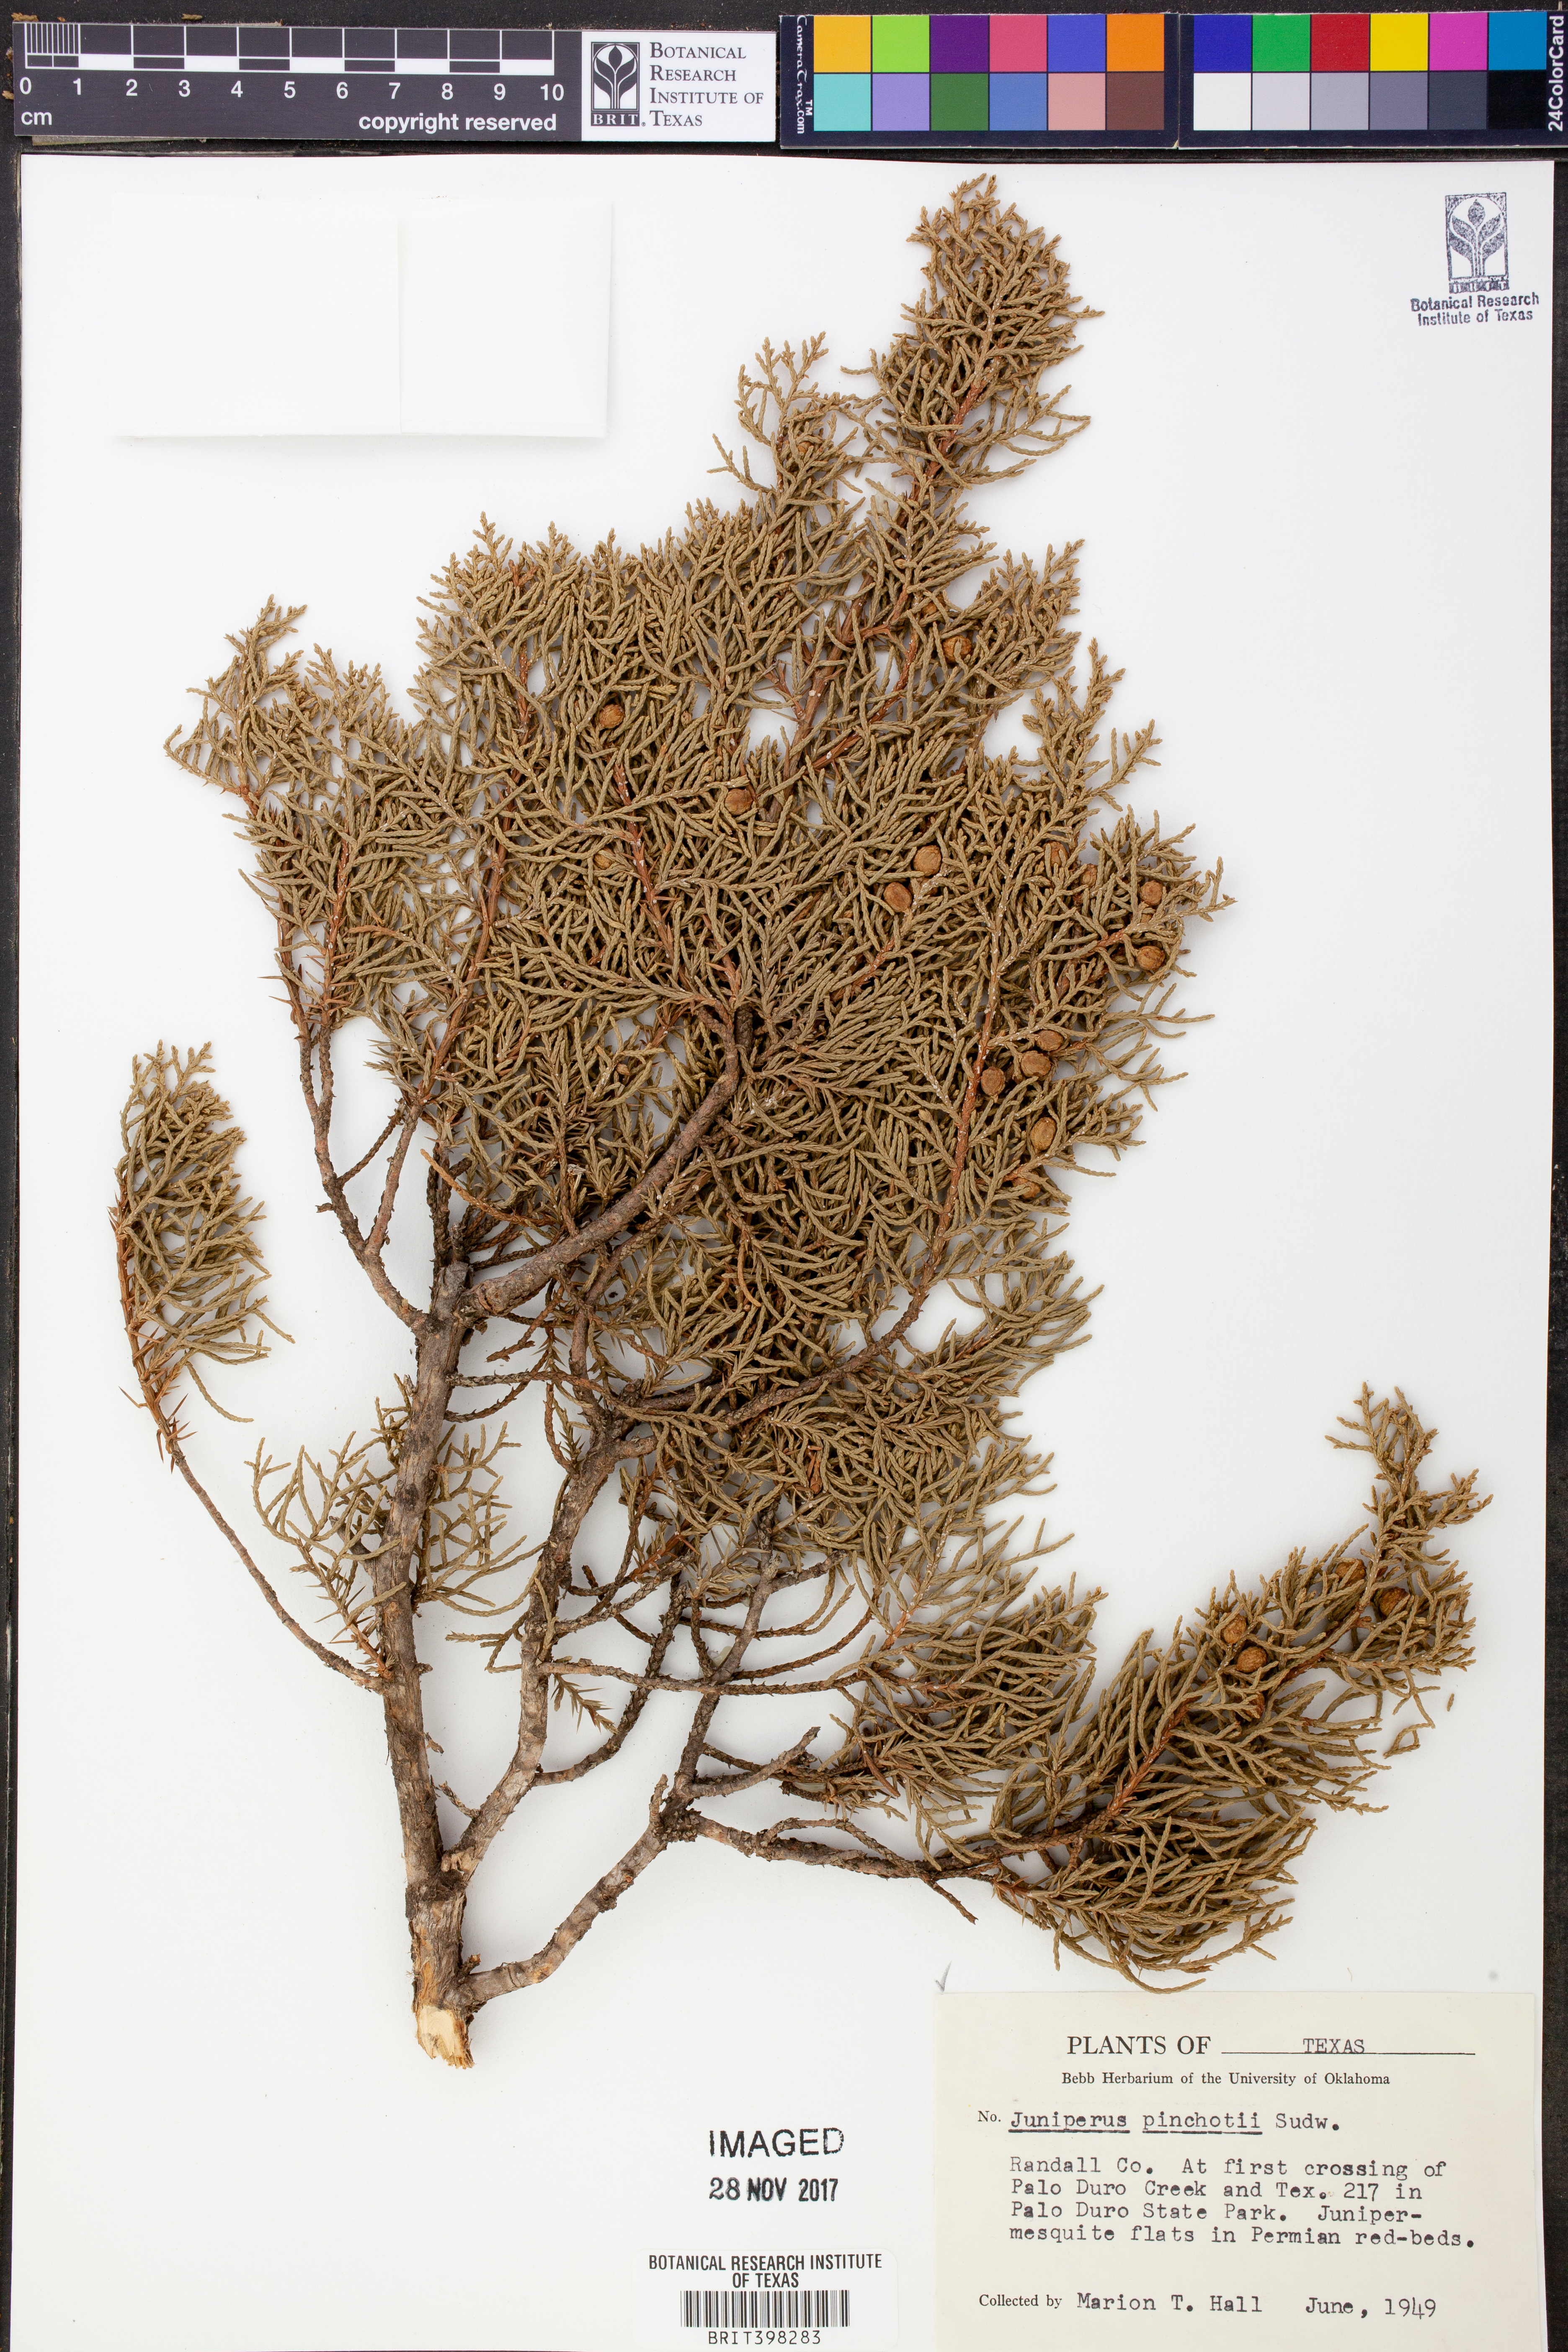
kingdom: Plantae
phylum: Tracheophyta
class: Pinopsida
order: Pinales
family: Cupressaceae
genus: Juniperus
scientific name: Juniperus pinchotii
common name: Pinchot juniper
